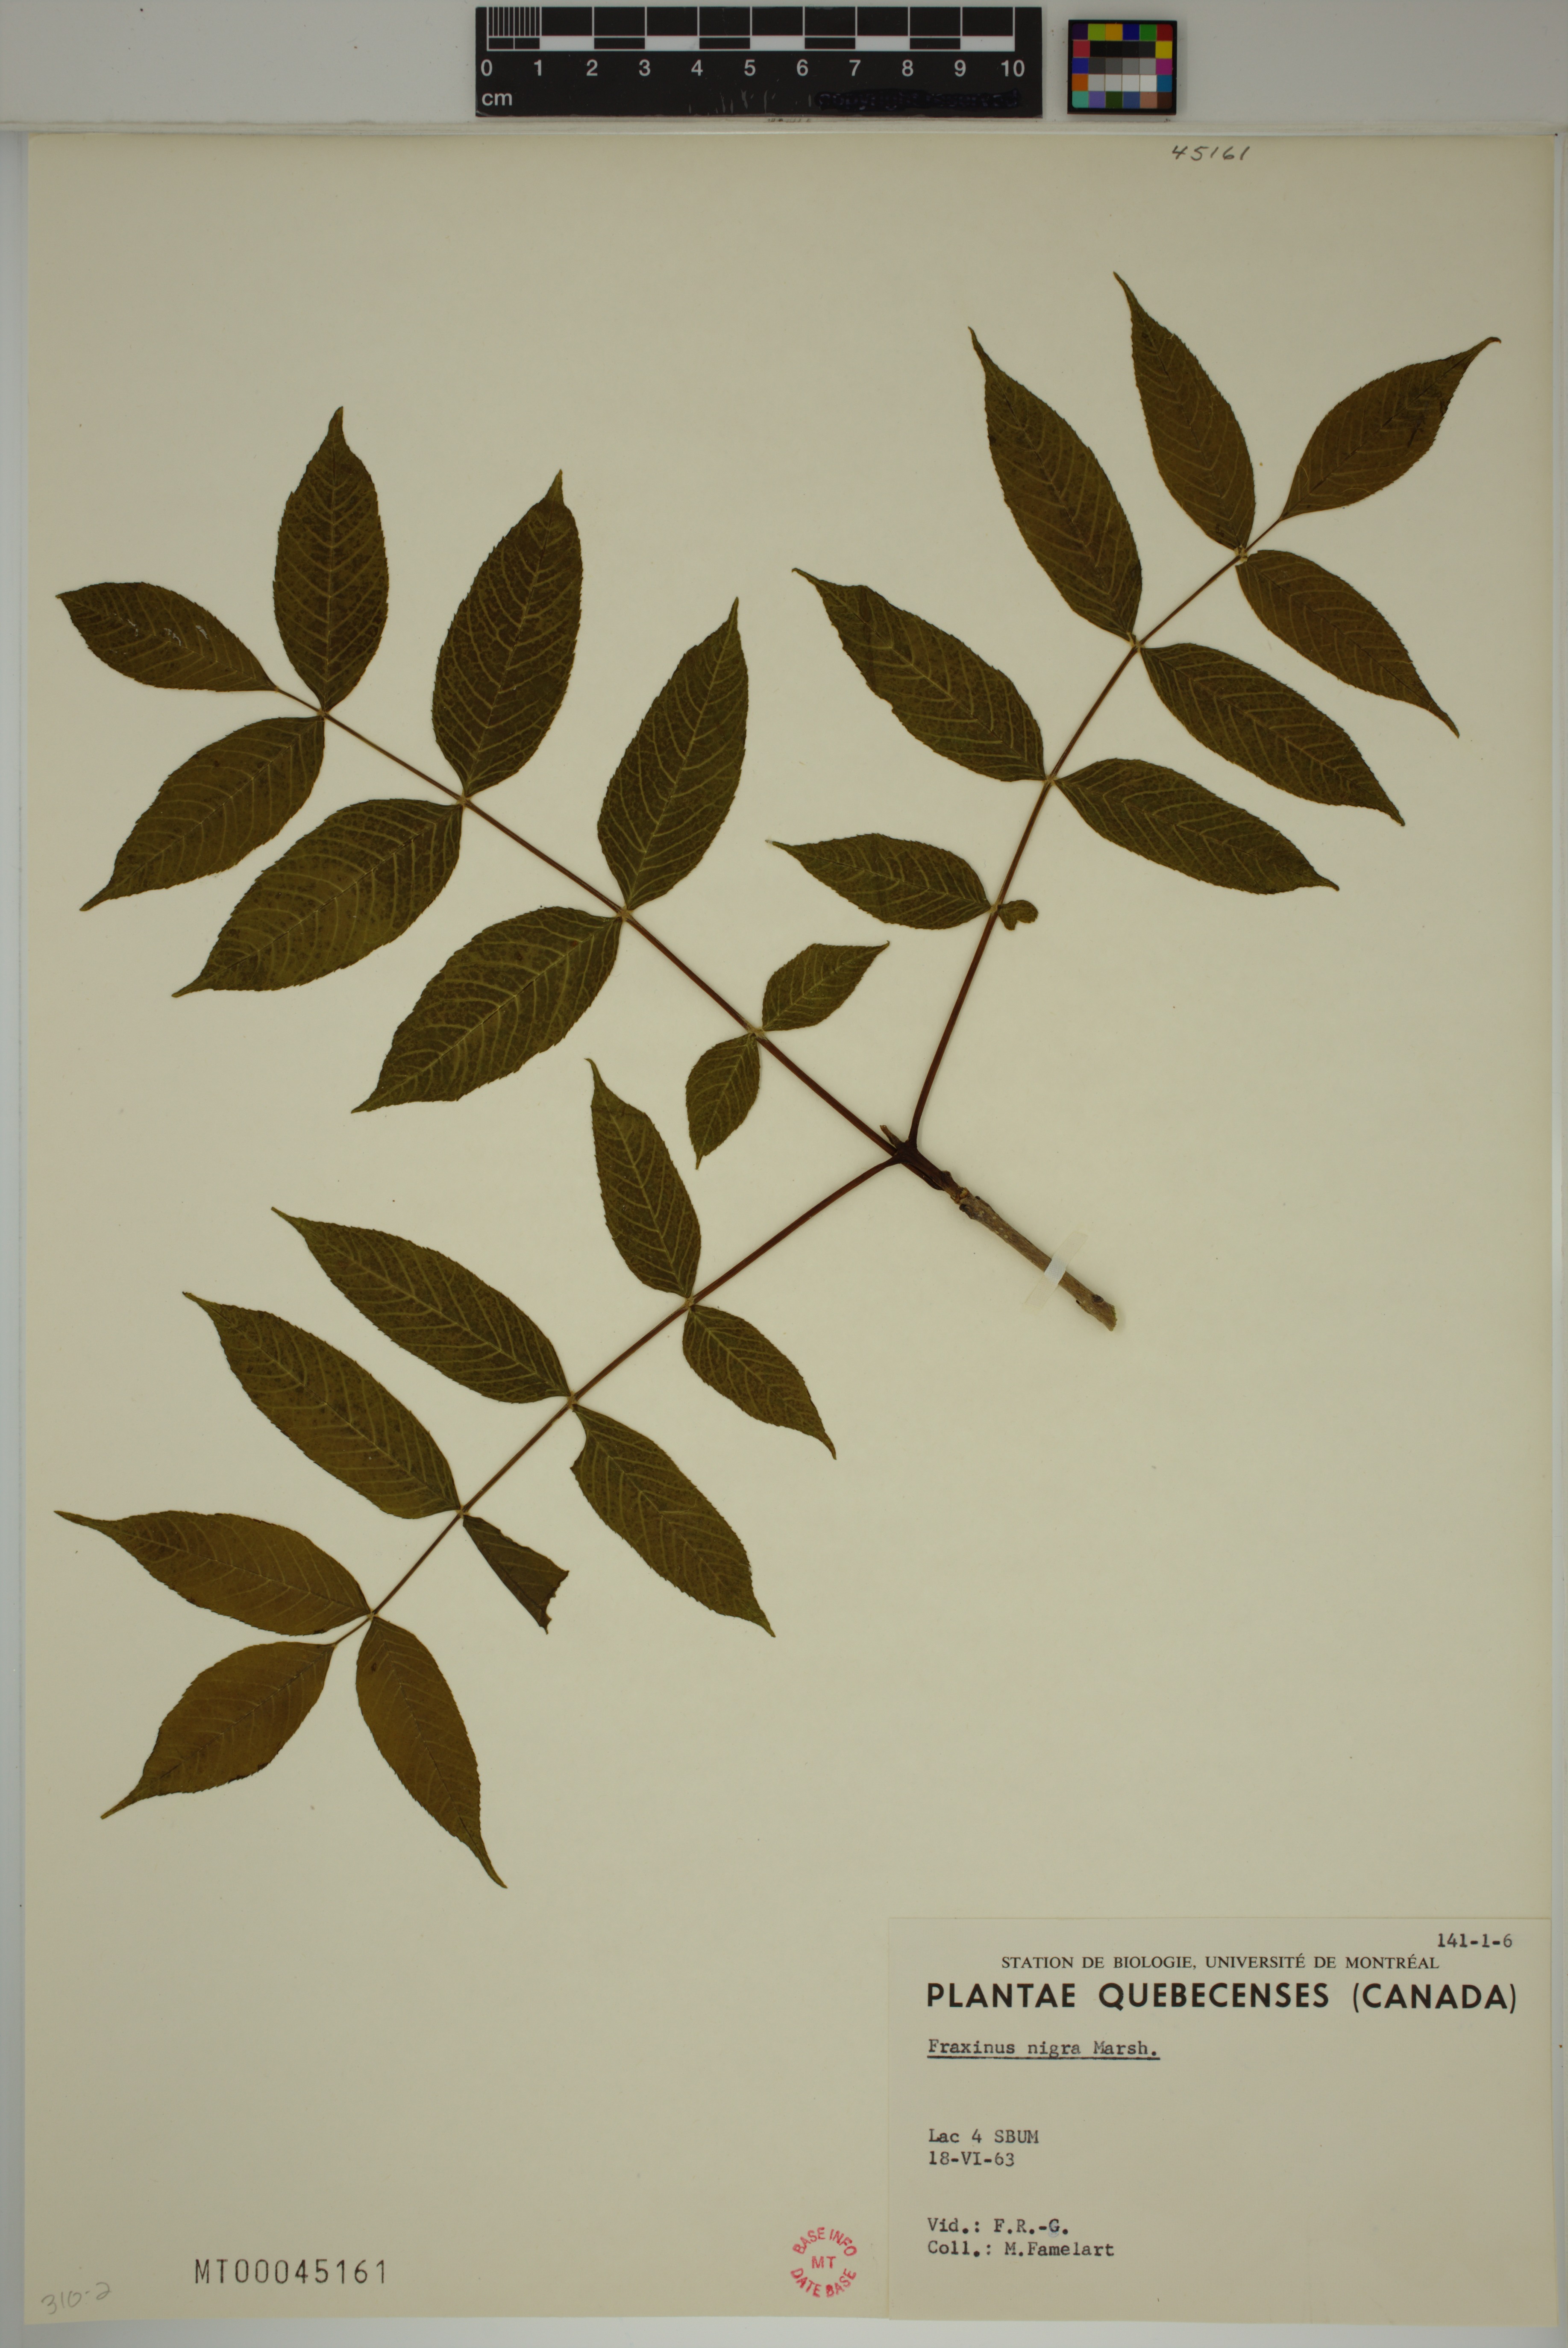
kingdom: Plantae
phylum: Tracheophyta
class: Magnoliopsida
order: Lamiales
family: Oleaceae
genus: Fraxinus
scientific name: Fraxinus nigra
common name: Black ash
